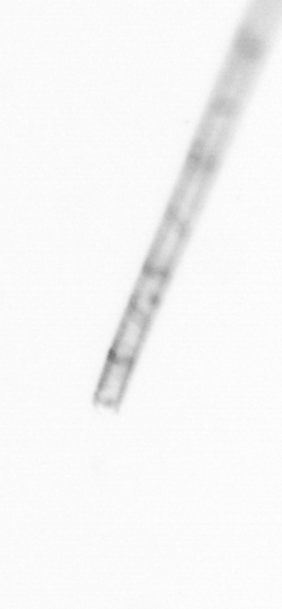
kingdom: Chromista
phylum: Ochrophyta
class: Bacillariophyceae
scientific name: Bacillariophyceae
